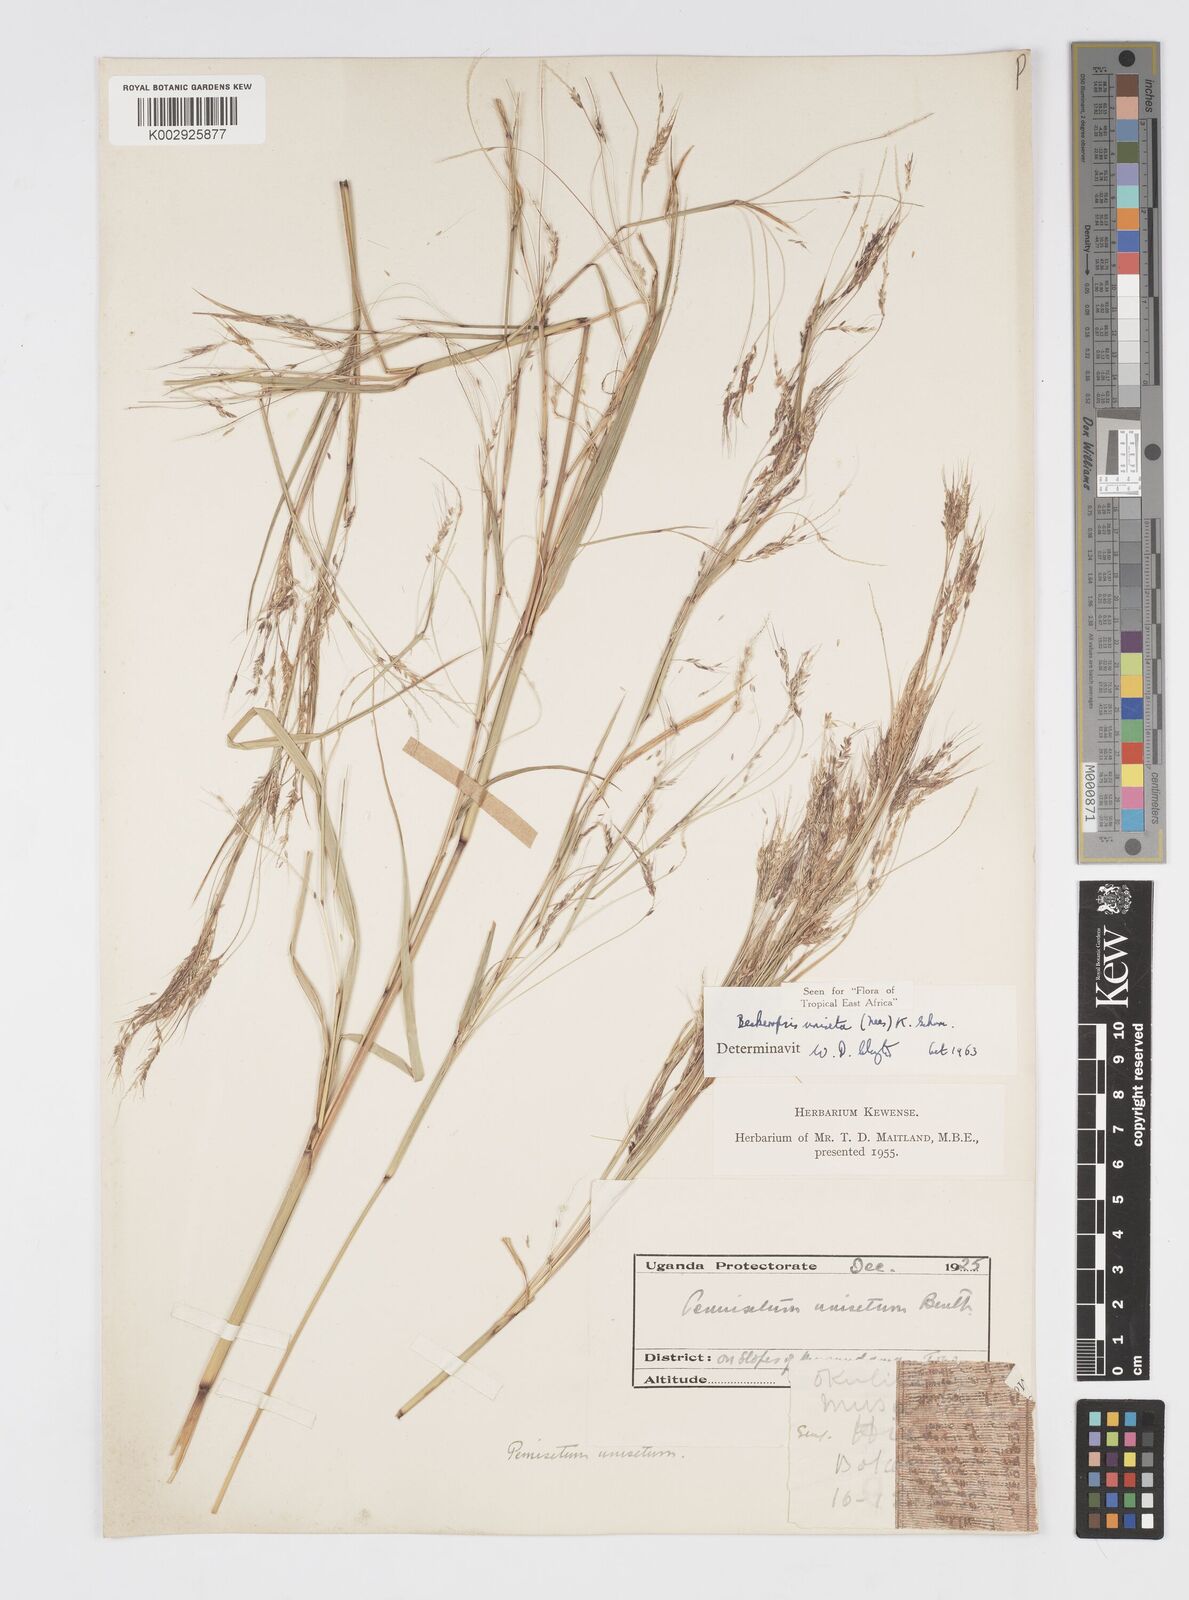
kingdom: Plantae
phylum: Tracheophyta
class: Liliopsida
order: Poales
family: Poaceae
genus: Cenchrus
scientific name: Cenchrus unisetus
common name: Natal grass
